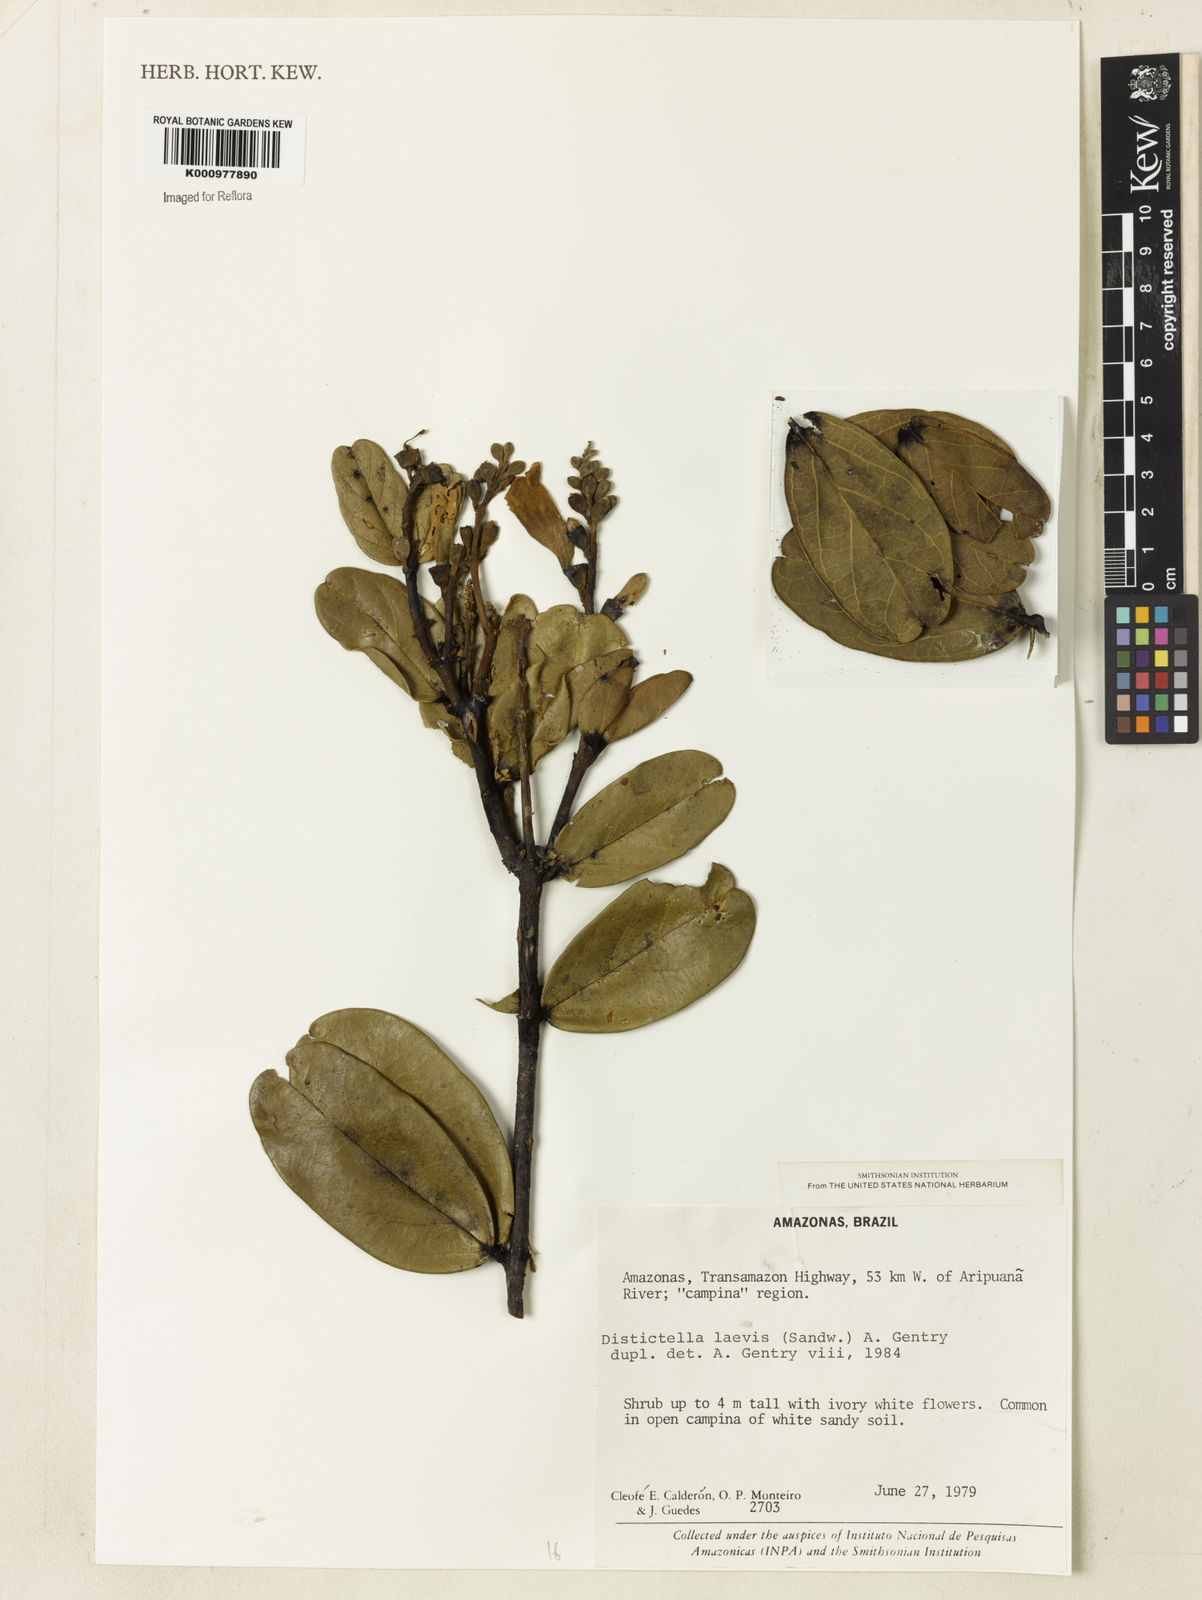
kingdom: Plantae
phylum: Tracheophyta
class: Magnoliopsida
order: Lamiales
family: Bignoniaceae
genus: Amphilophium
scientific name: Amphilophium laevis
